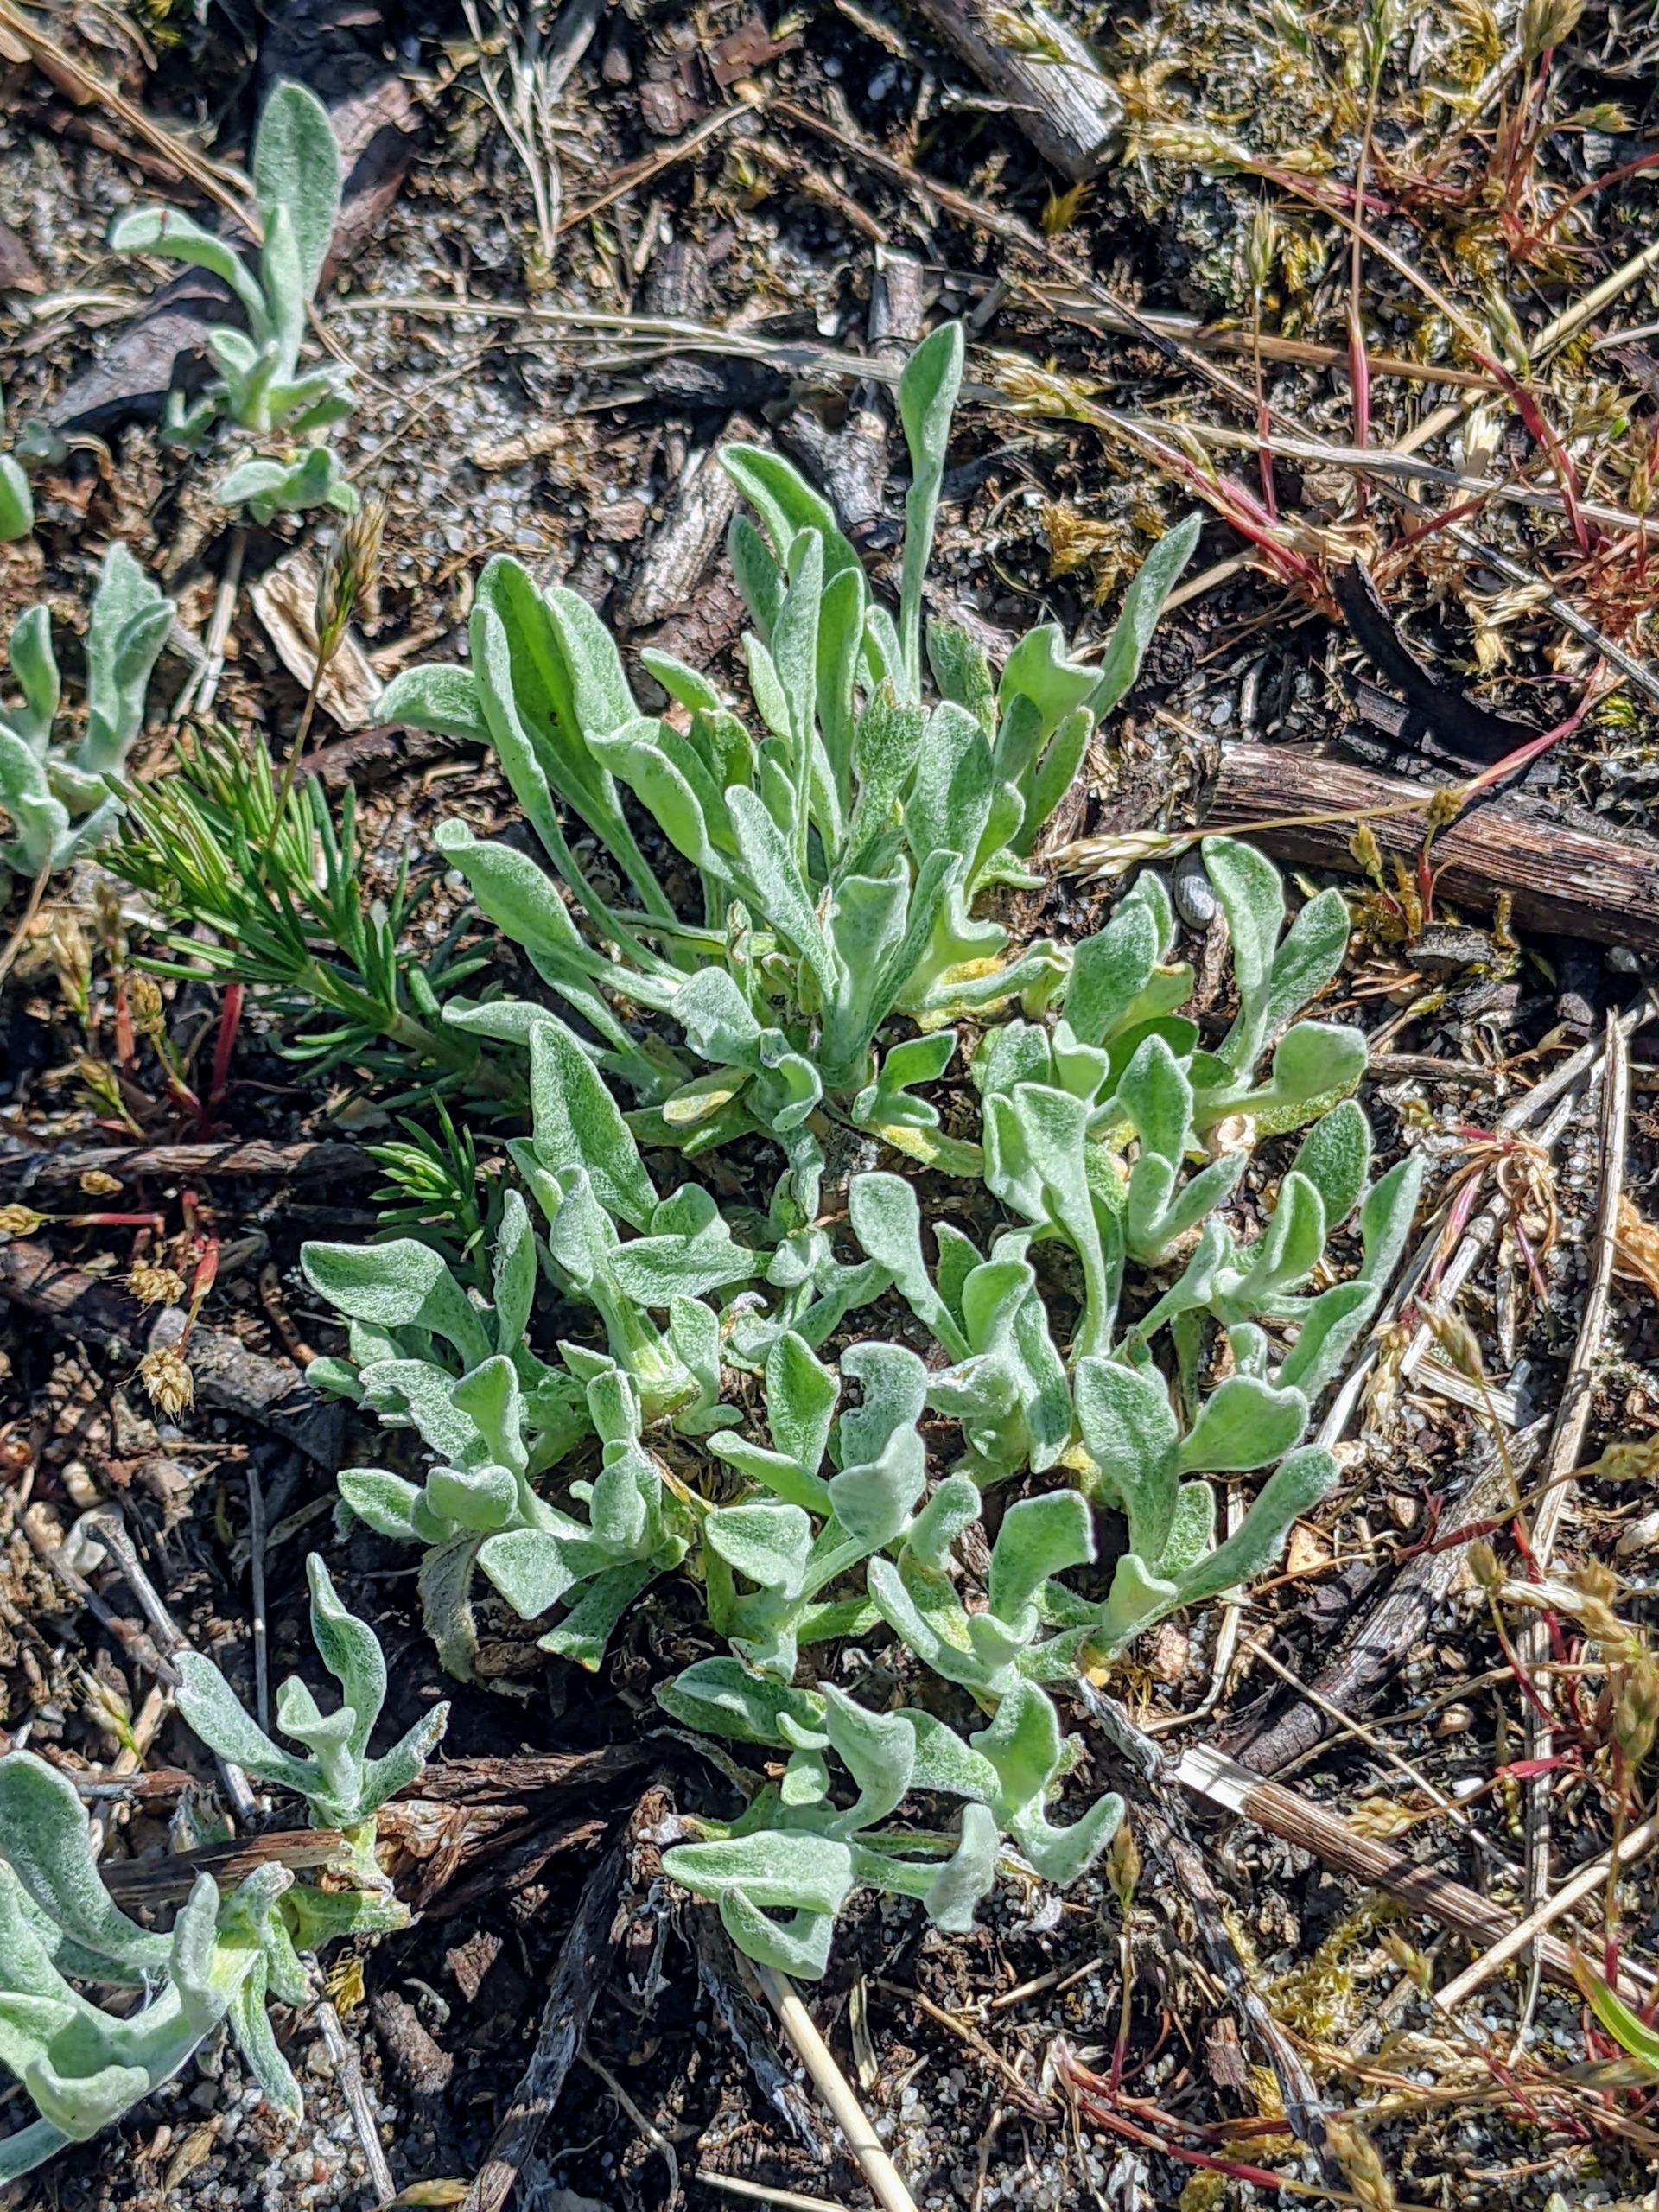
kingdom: Plantae
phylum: Tracheophyta
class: Magnoliopsida
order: Asterales
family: Asteraceae
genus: Helichrysum
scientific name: Helichrysum arenarium
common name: Gul evighedsblomst
